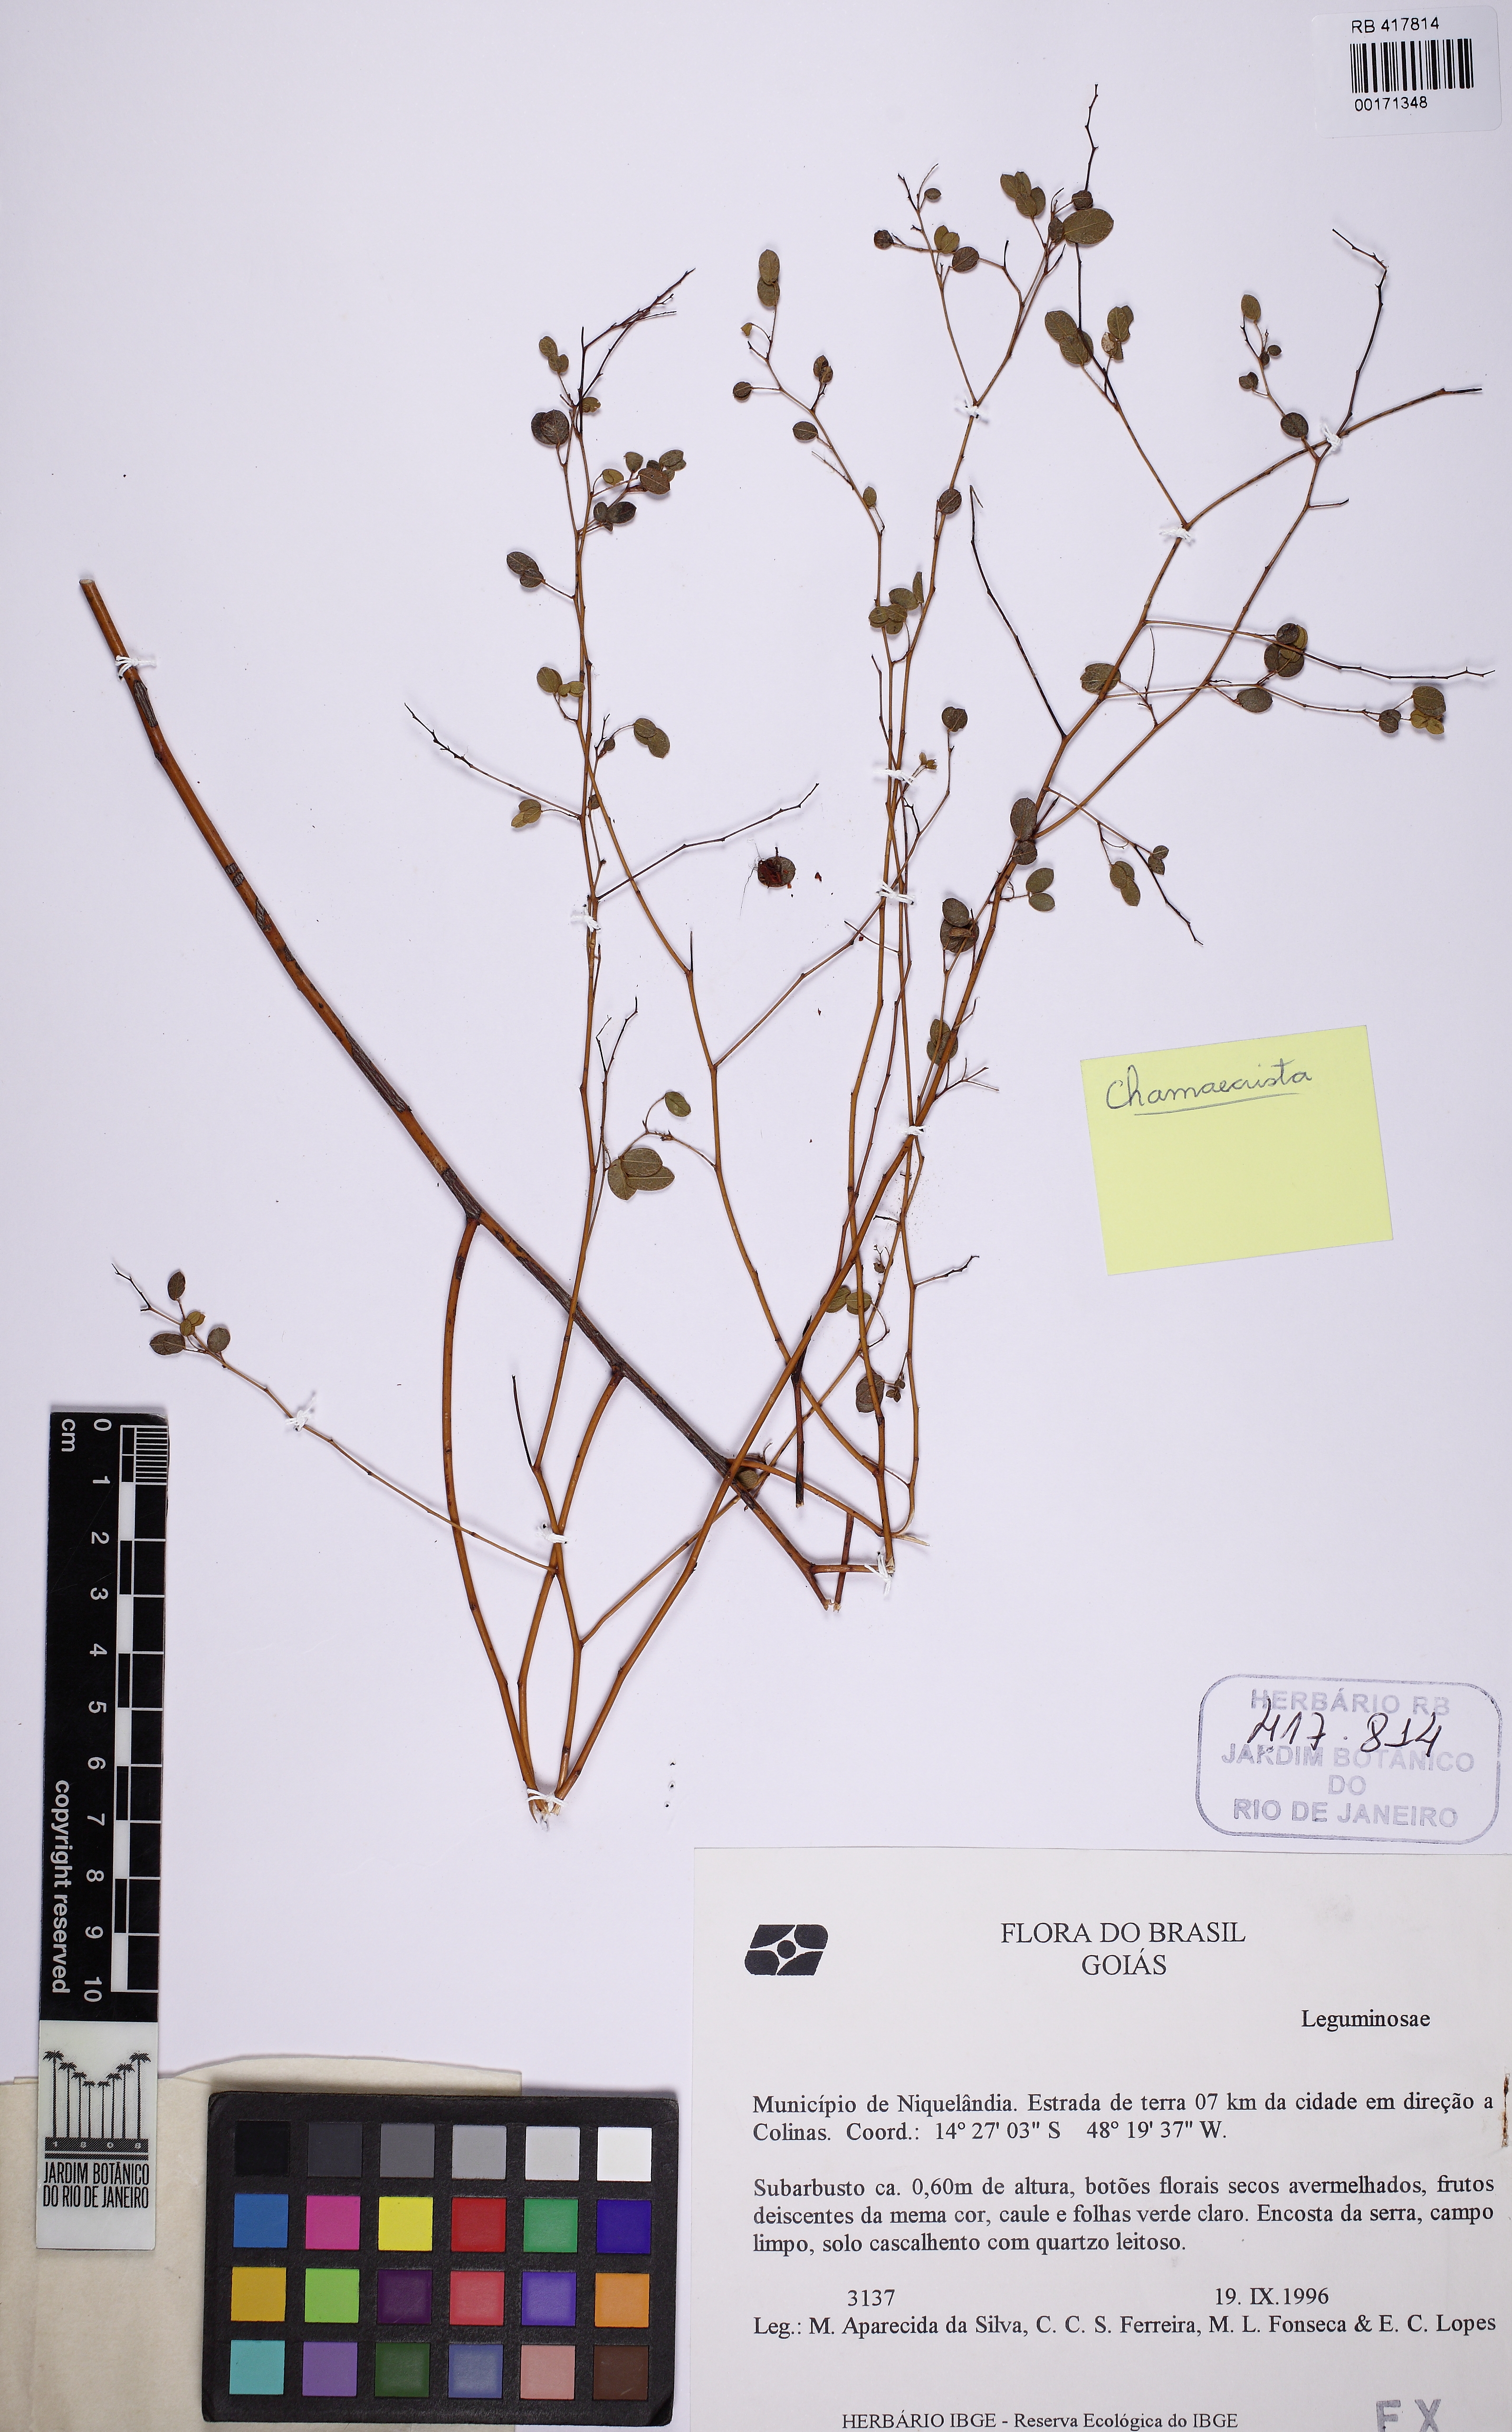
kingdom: Plantae
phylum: Tracheophyta
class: Magnoliopsida
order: Fabales
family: Fabaceae
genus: Chamaecrista
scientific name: Chamaecrista
